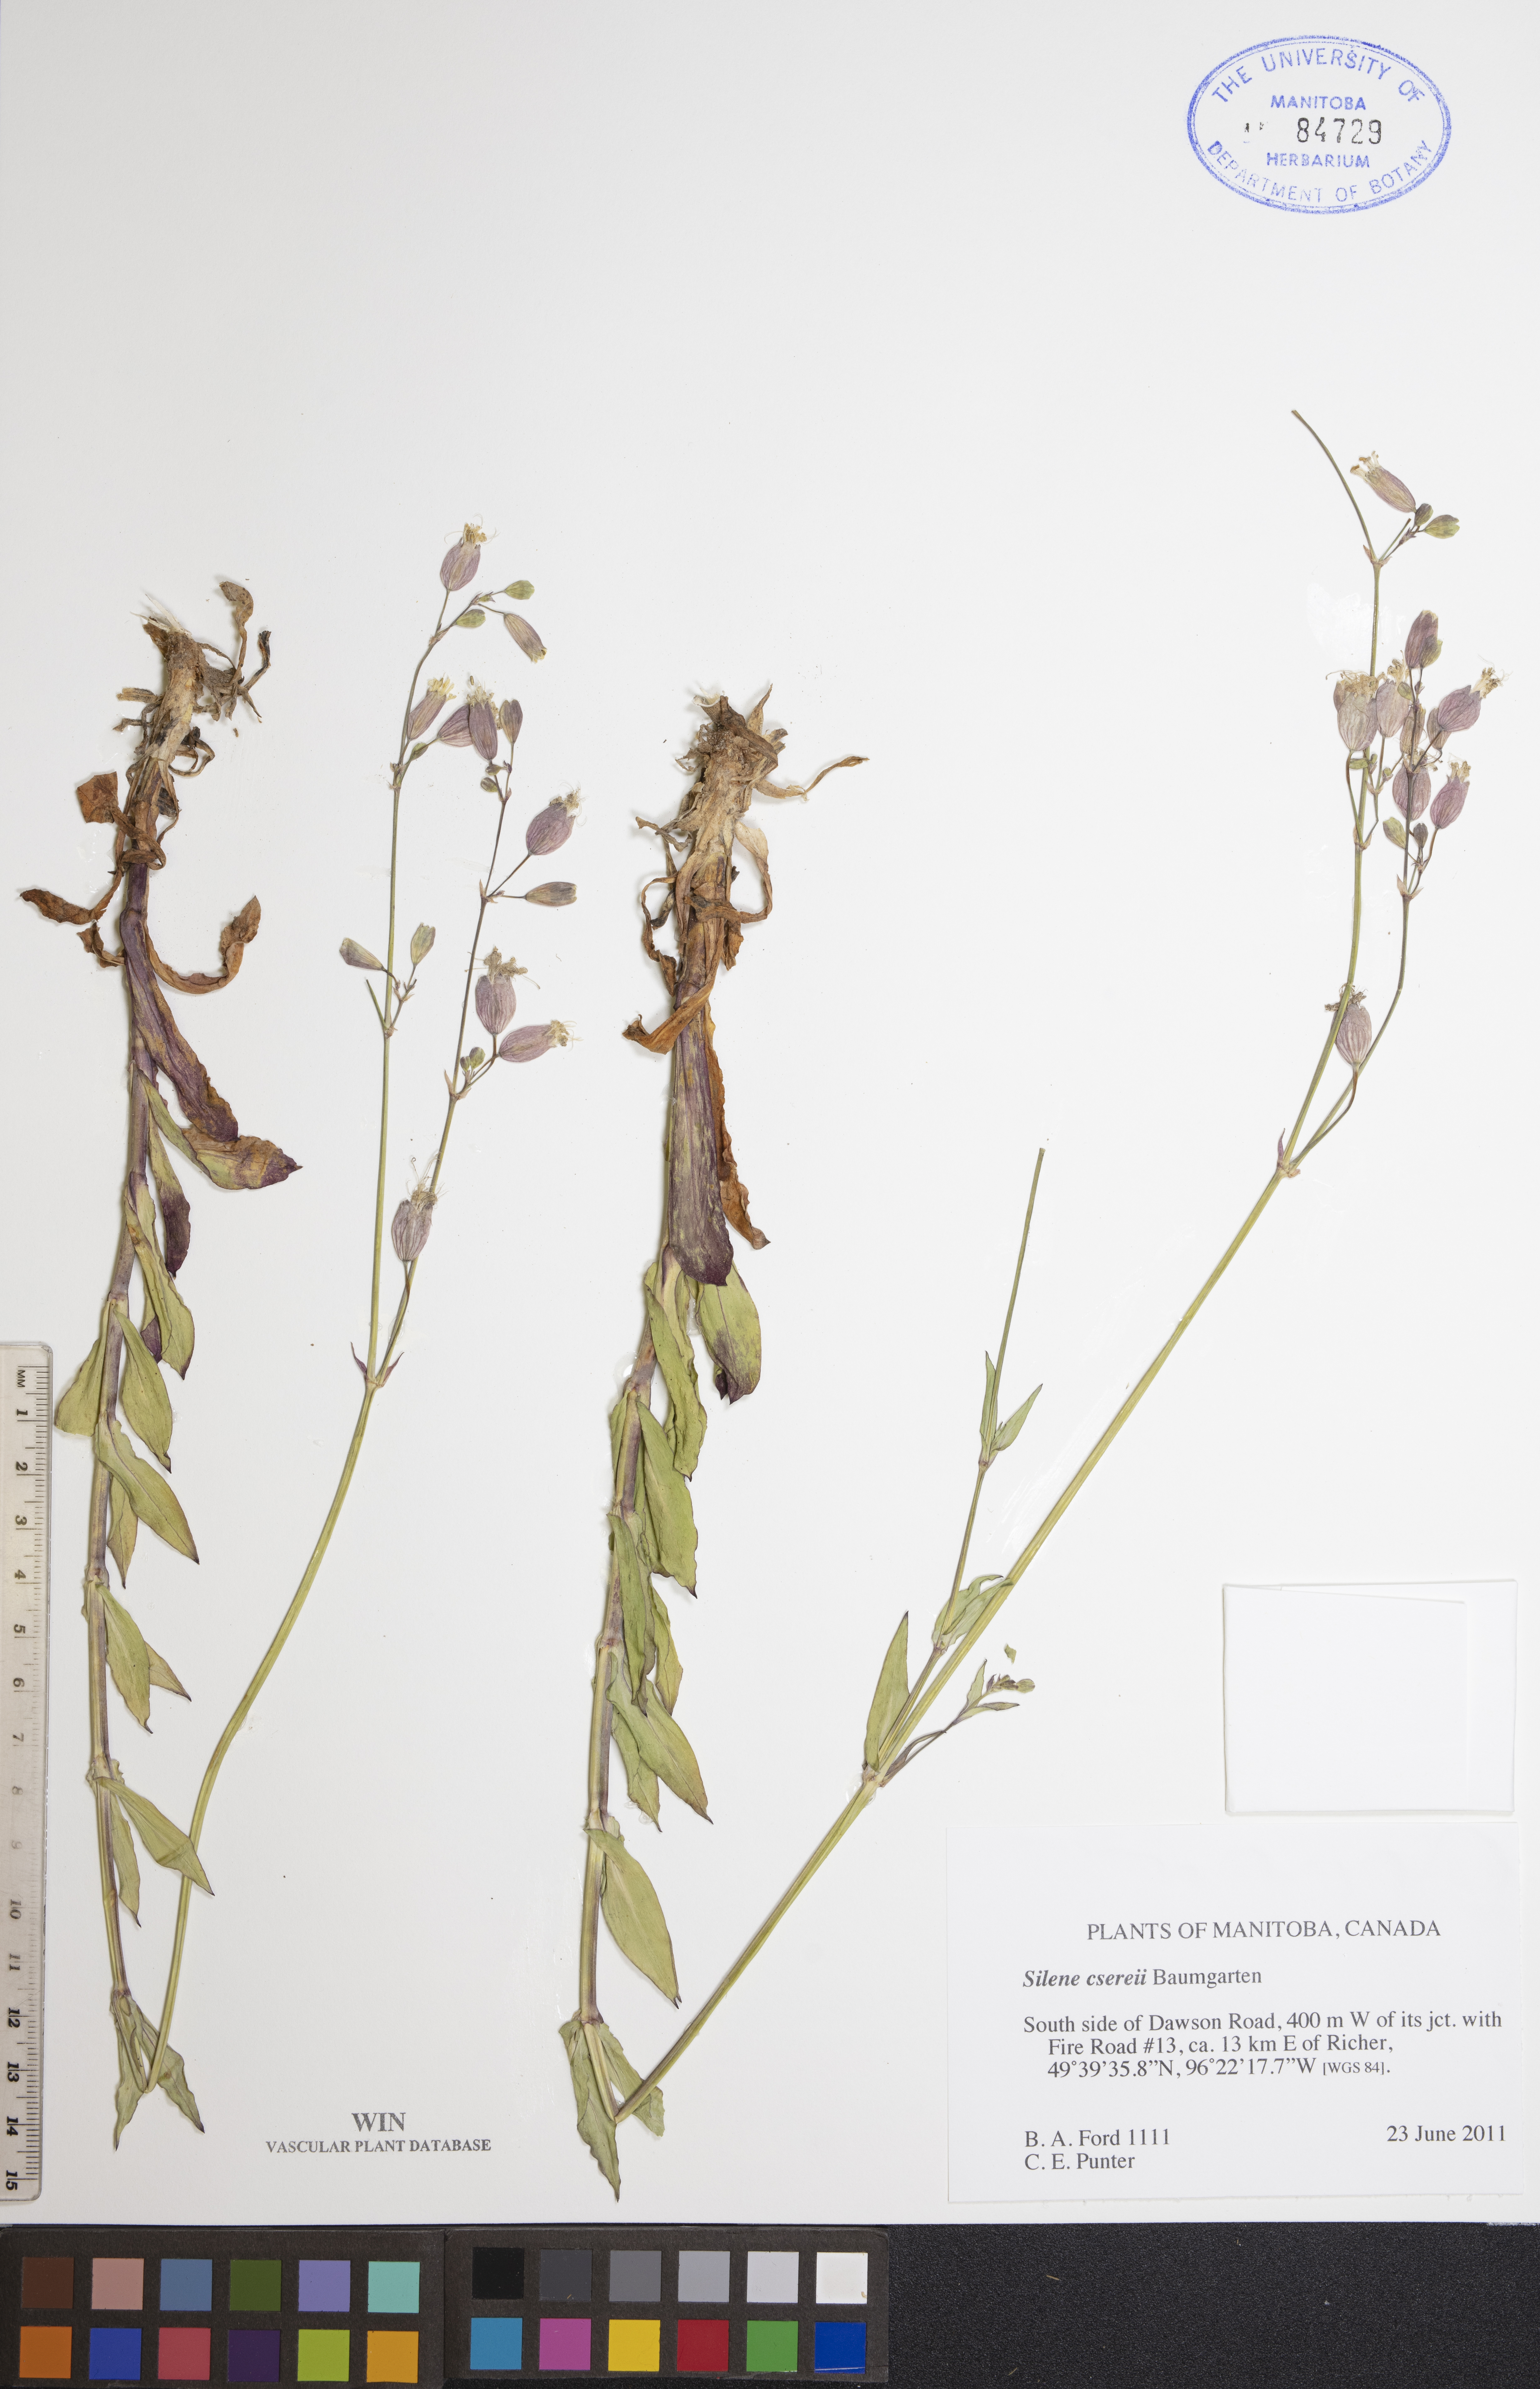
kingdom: Plantae
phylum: Tracheophyta
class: Magnoliopsida
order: Caryophyllales
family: Caryophyllaceae
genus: Silene
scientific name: Silene csereii
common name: Balkan catchfly
